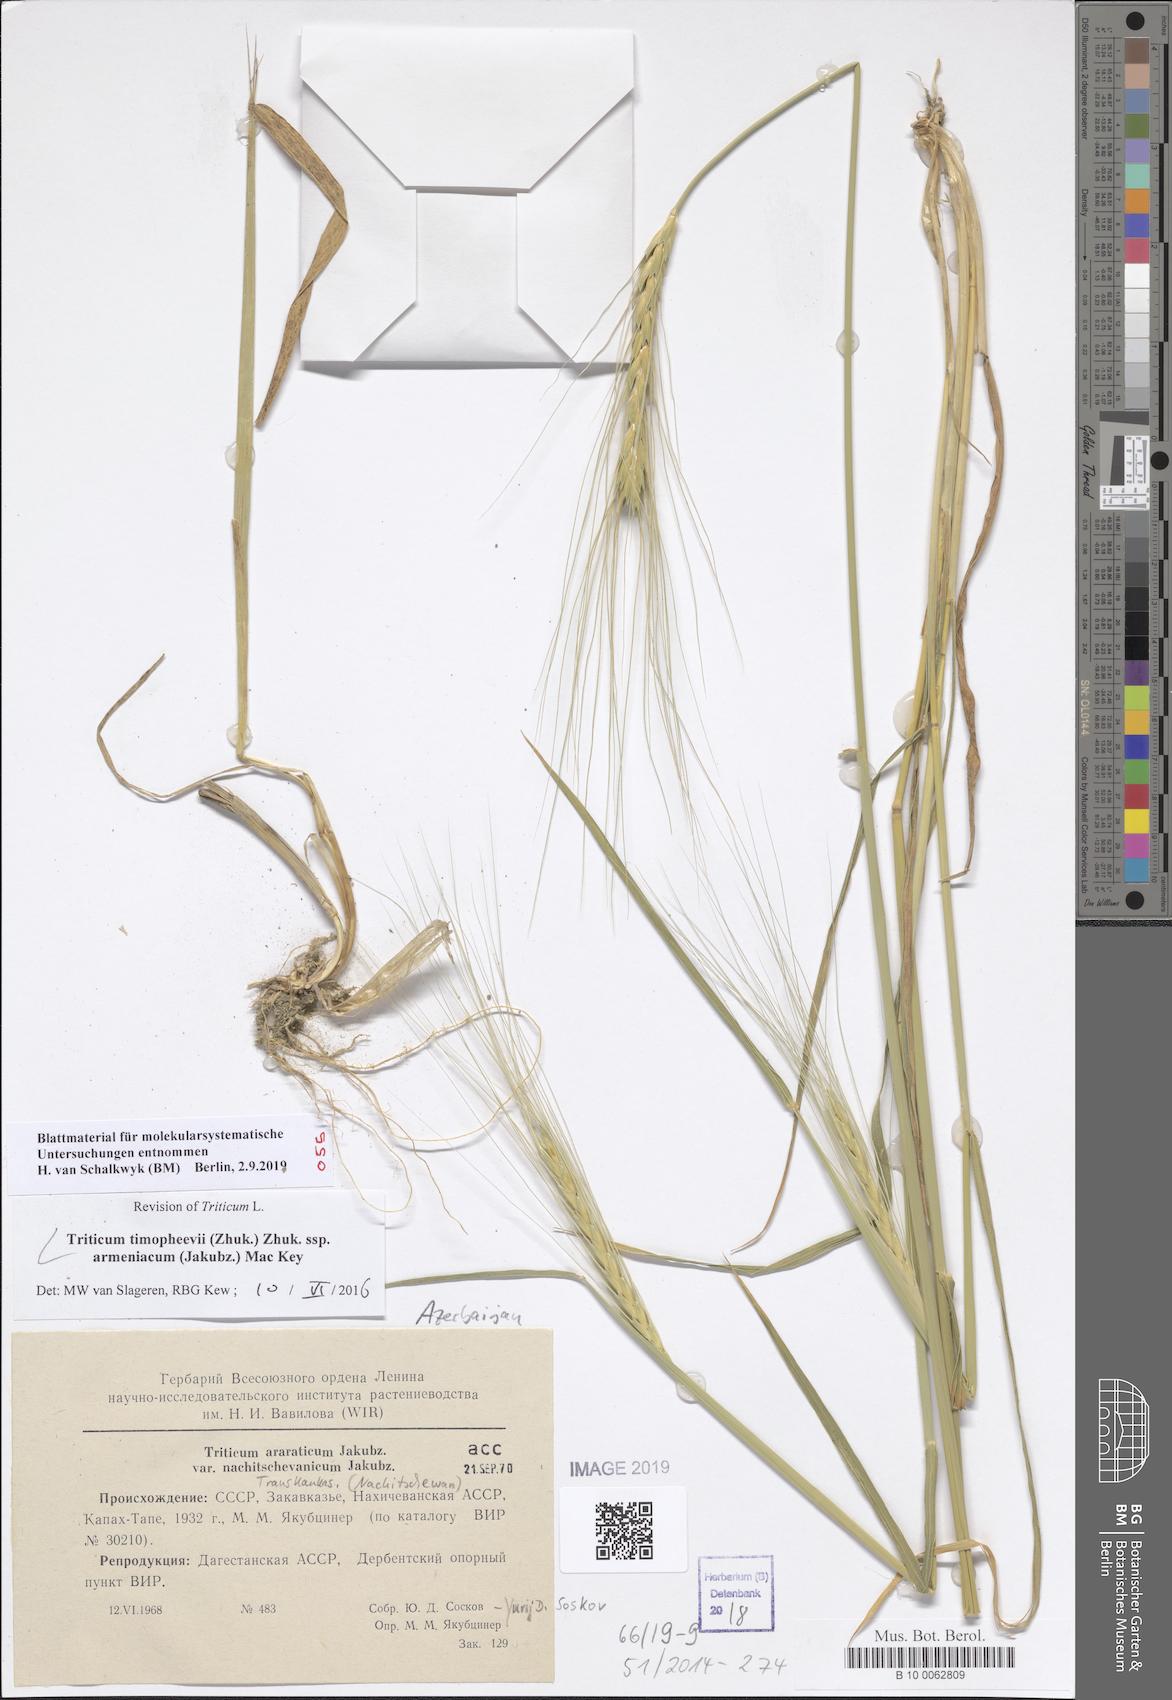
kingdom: Plantae
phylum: Tracheophyta
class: Liliopsida
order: Poales
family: Poaceae
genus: Triticum
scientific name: Triticum timopheevii
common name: Timopheev's wheat
